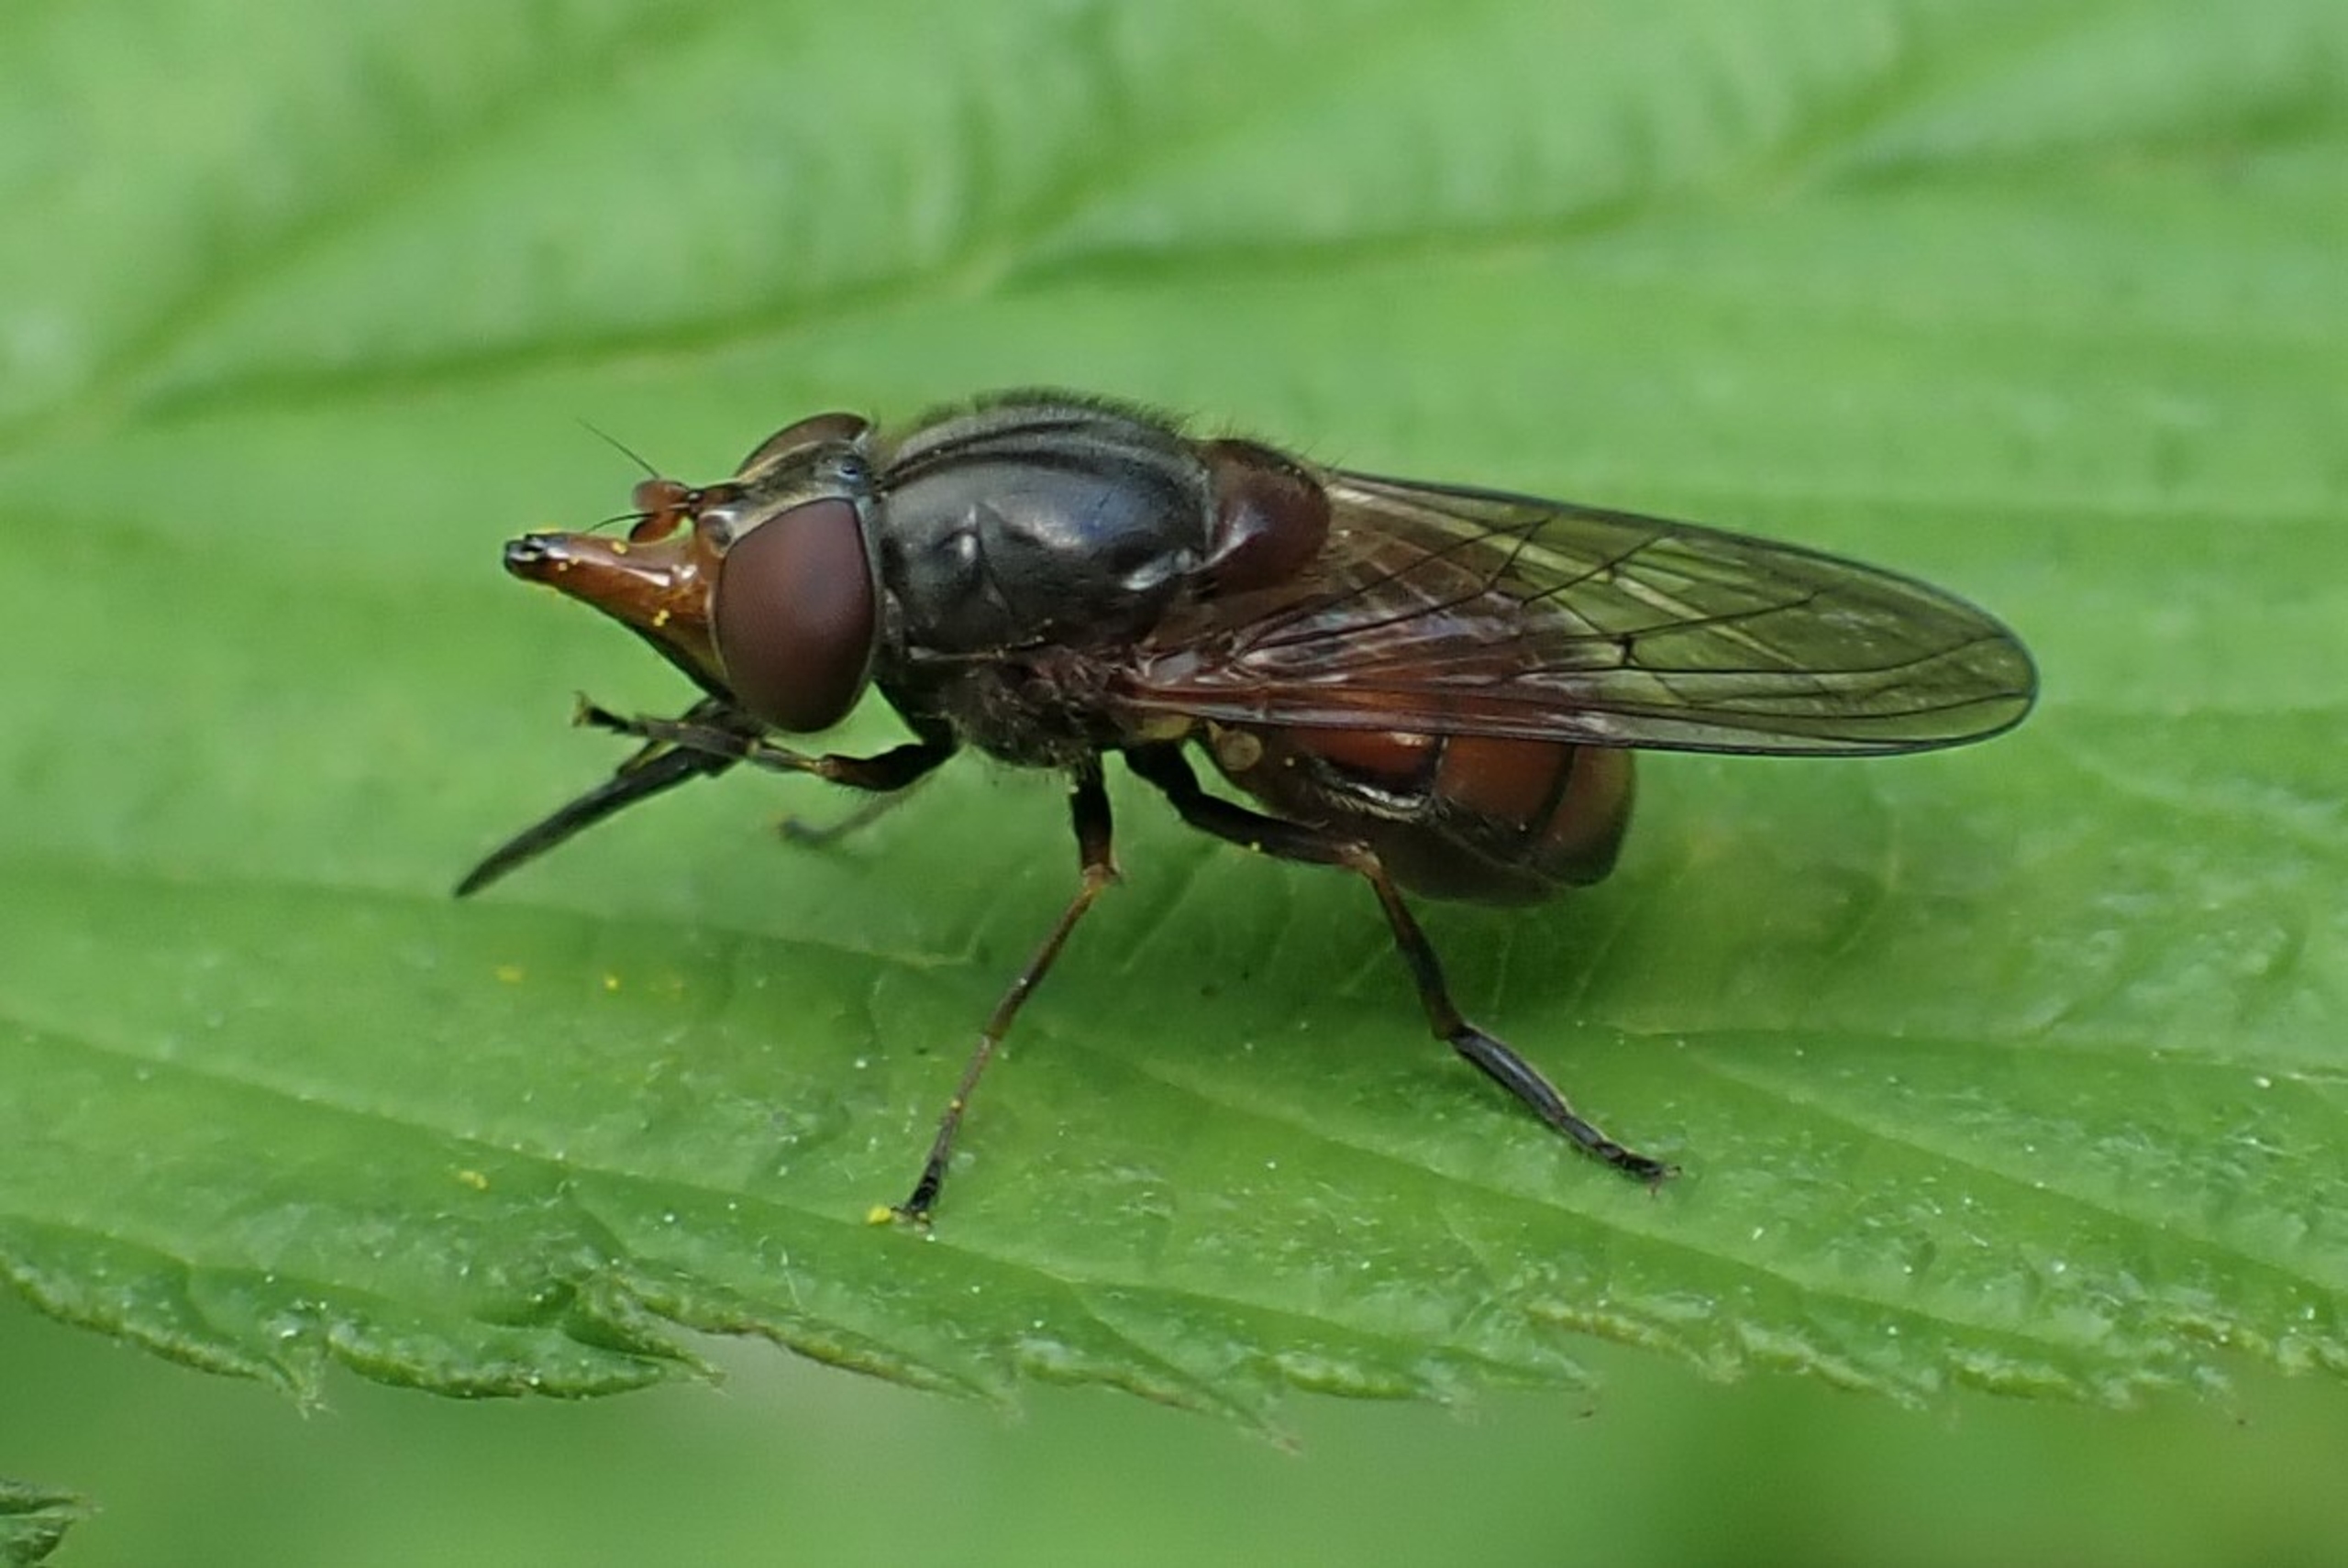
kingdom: Animalia
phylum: Arthropoda
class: Insecta
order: Diptera
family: Syrphidae
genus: Rhingia
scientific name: Rhingia campestris
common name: Mark-snabelsvirreflue
